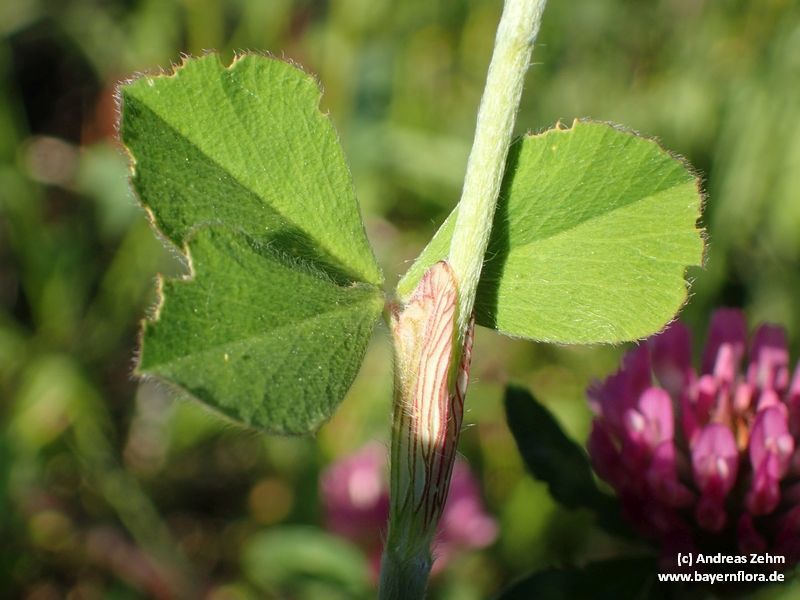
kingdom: Plantae
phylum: Tracheophyta
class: Magnoliopsida
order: Fabales
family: Fabaceae
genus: Trifolium
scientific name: Trifolium incarnatum
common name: Crimson clover
